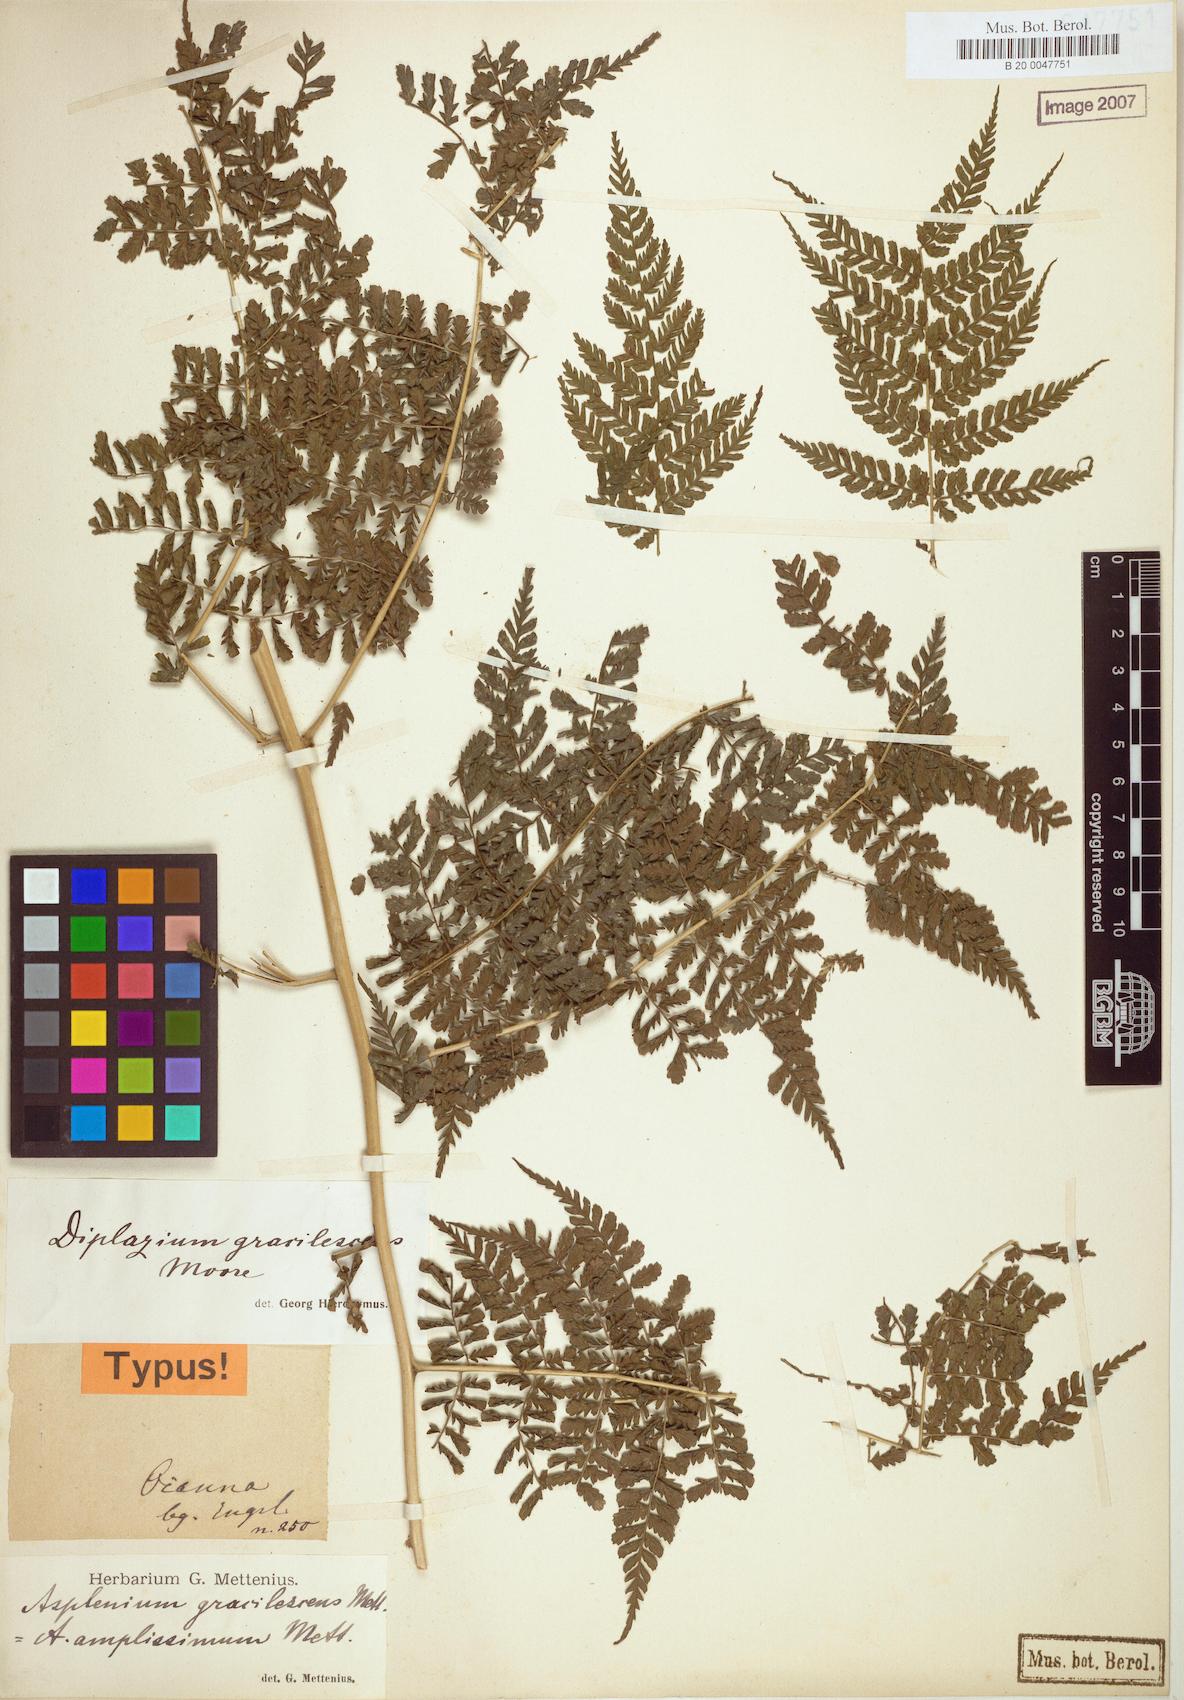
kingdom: Plantae
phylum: Tracheophyta
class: Polypodiopsida
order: Polypodiales
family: Athyriaceae
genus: Diplazium
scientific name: Diplazium gracilescens
